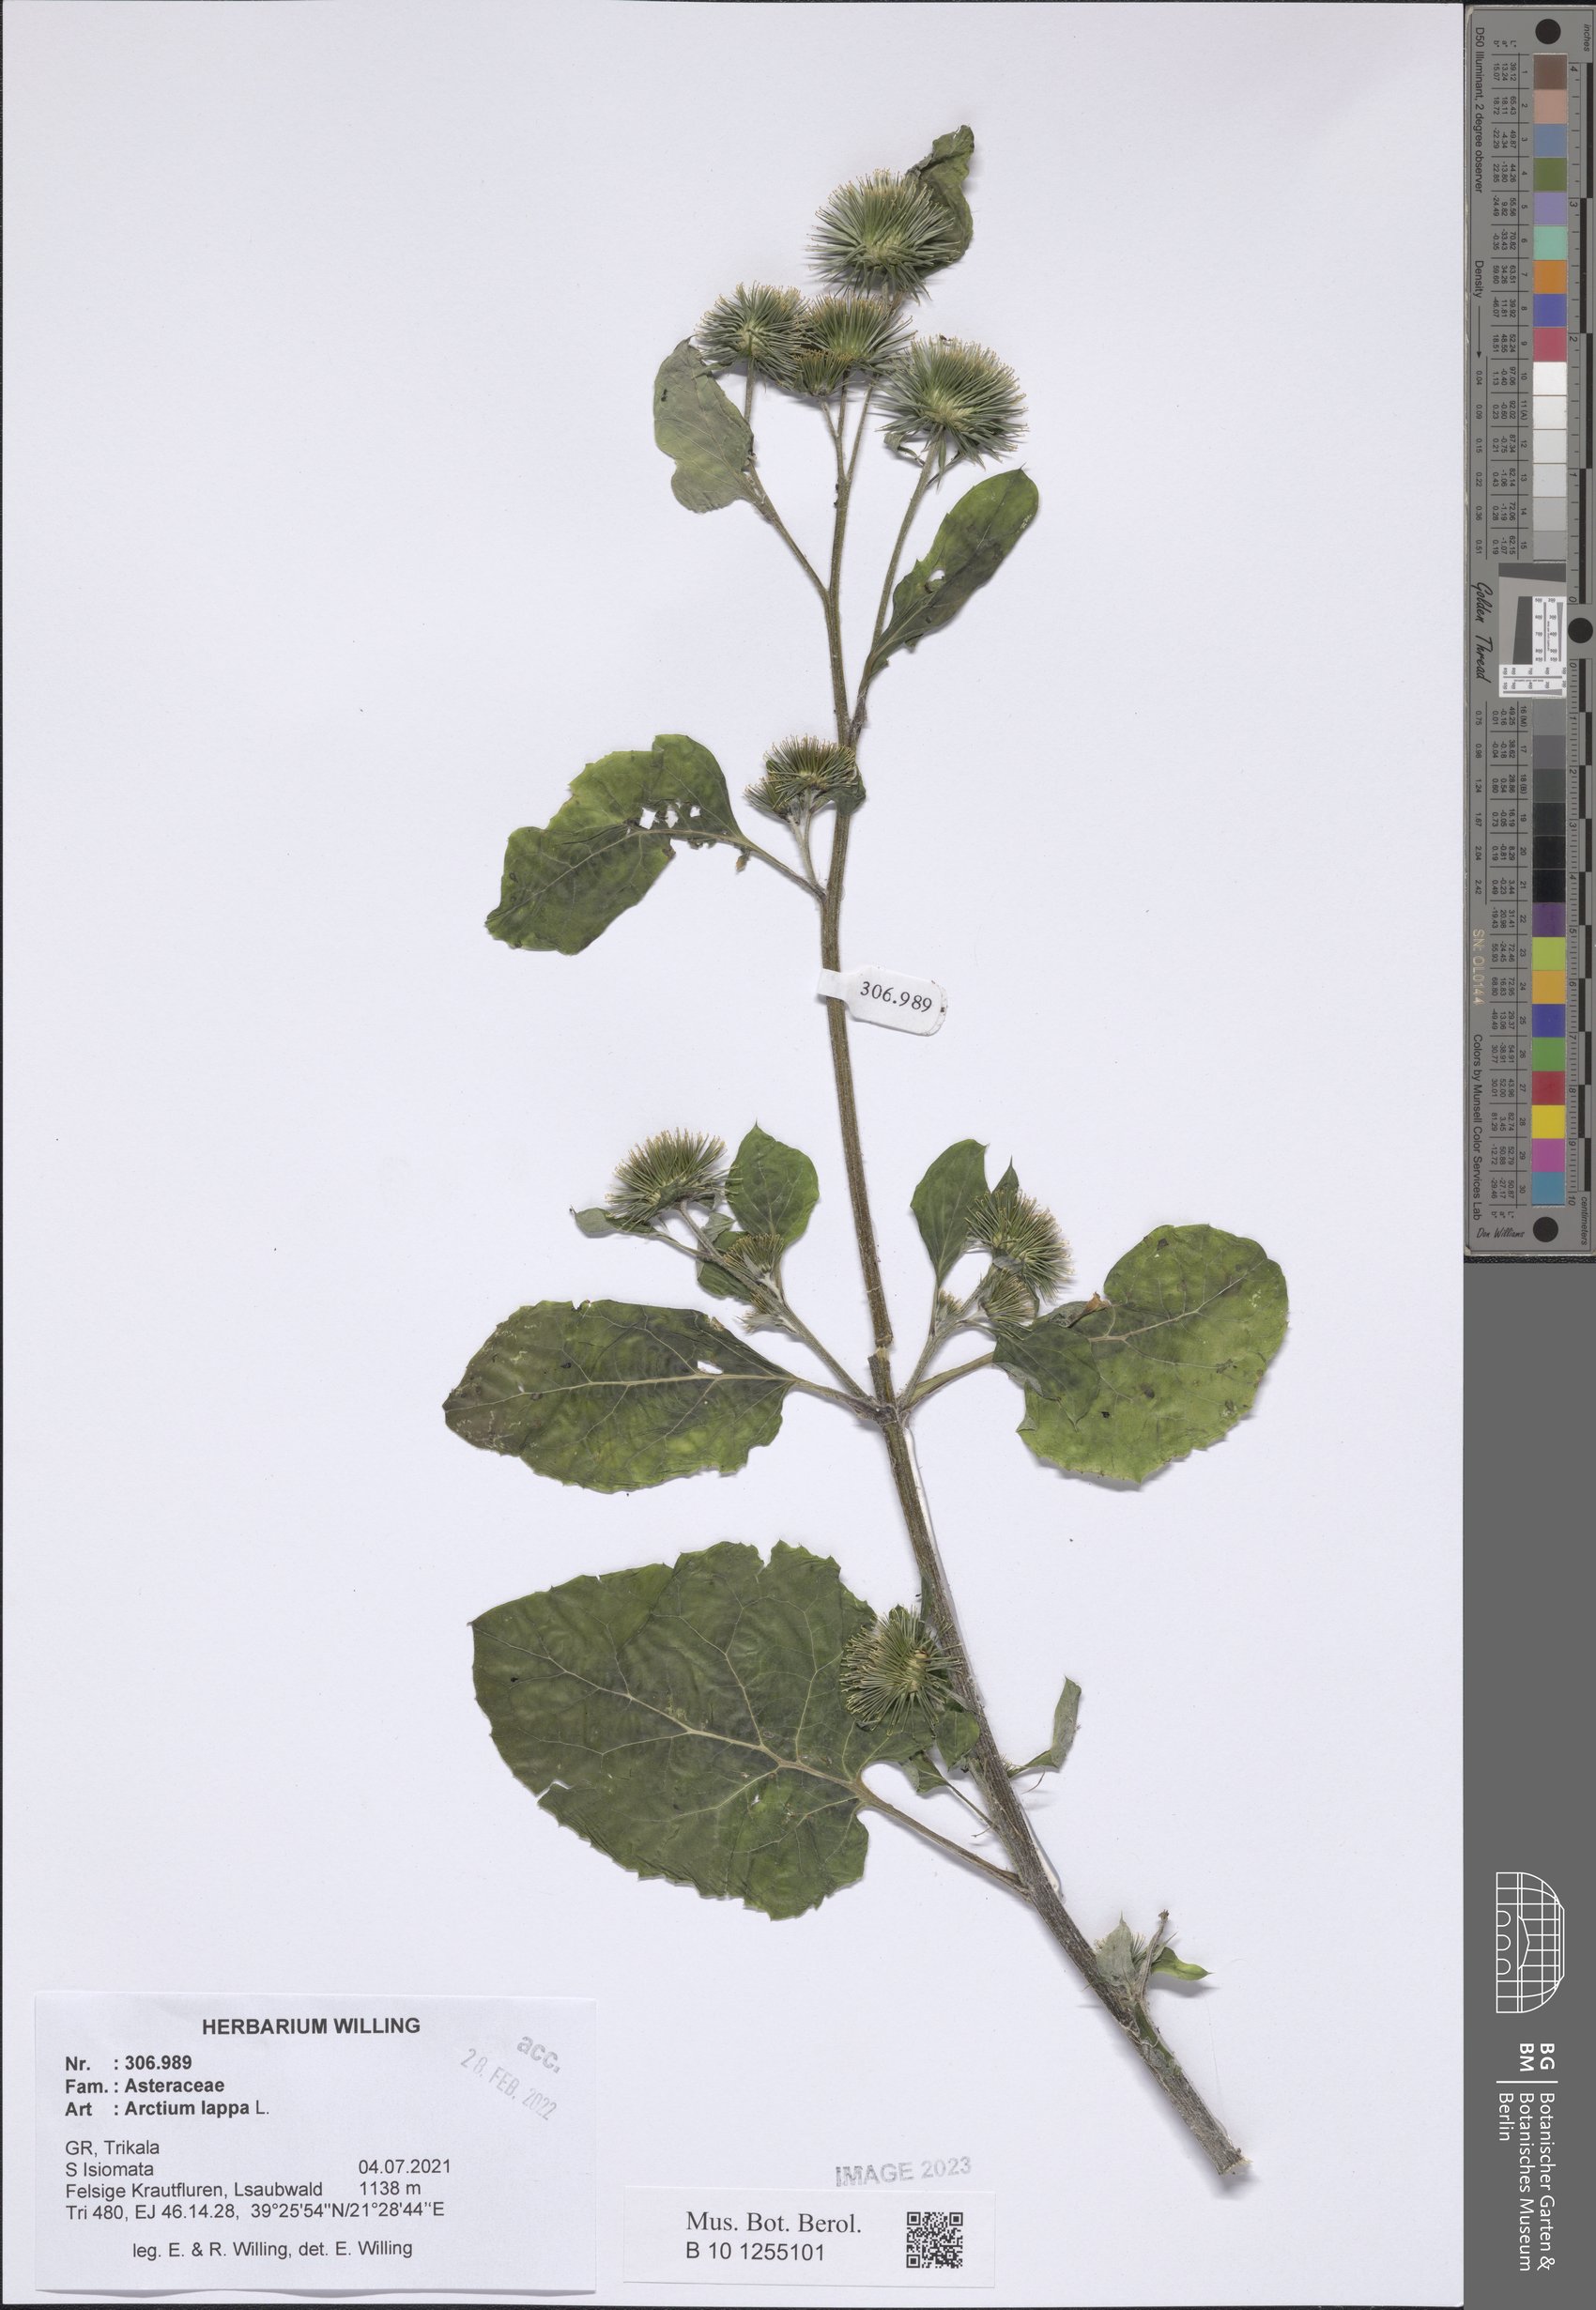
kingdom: Plantae
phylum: Tracheophyta
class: Magnoliopsida
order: Asterales
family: Asteraceae
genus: Arctium
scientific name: Arctium lappa
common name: Greater burdock
